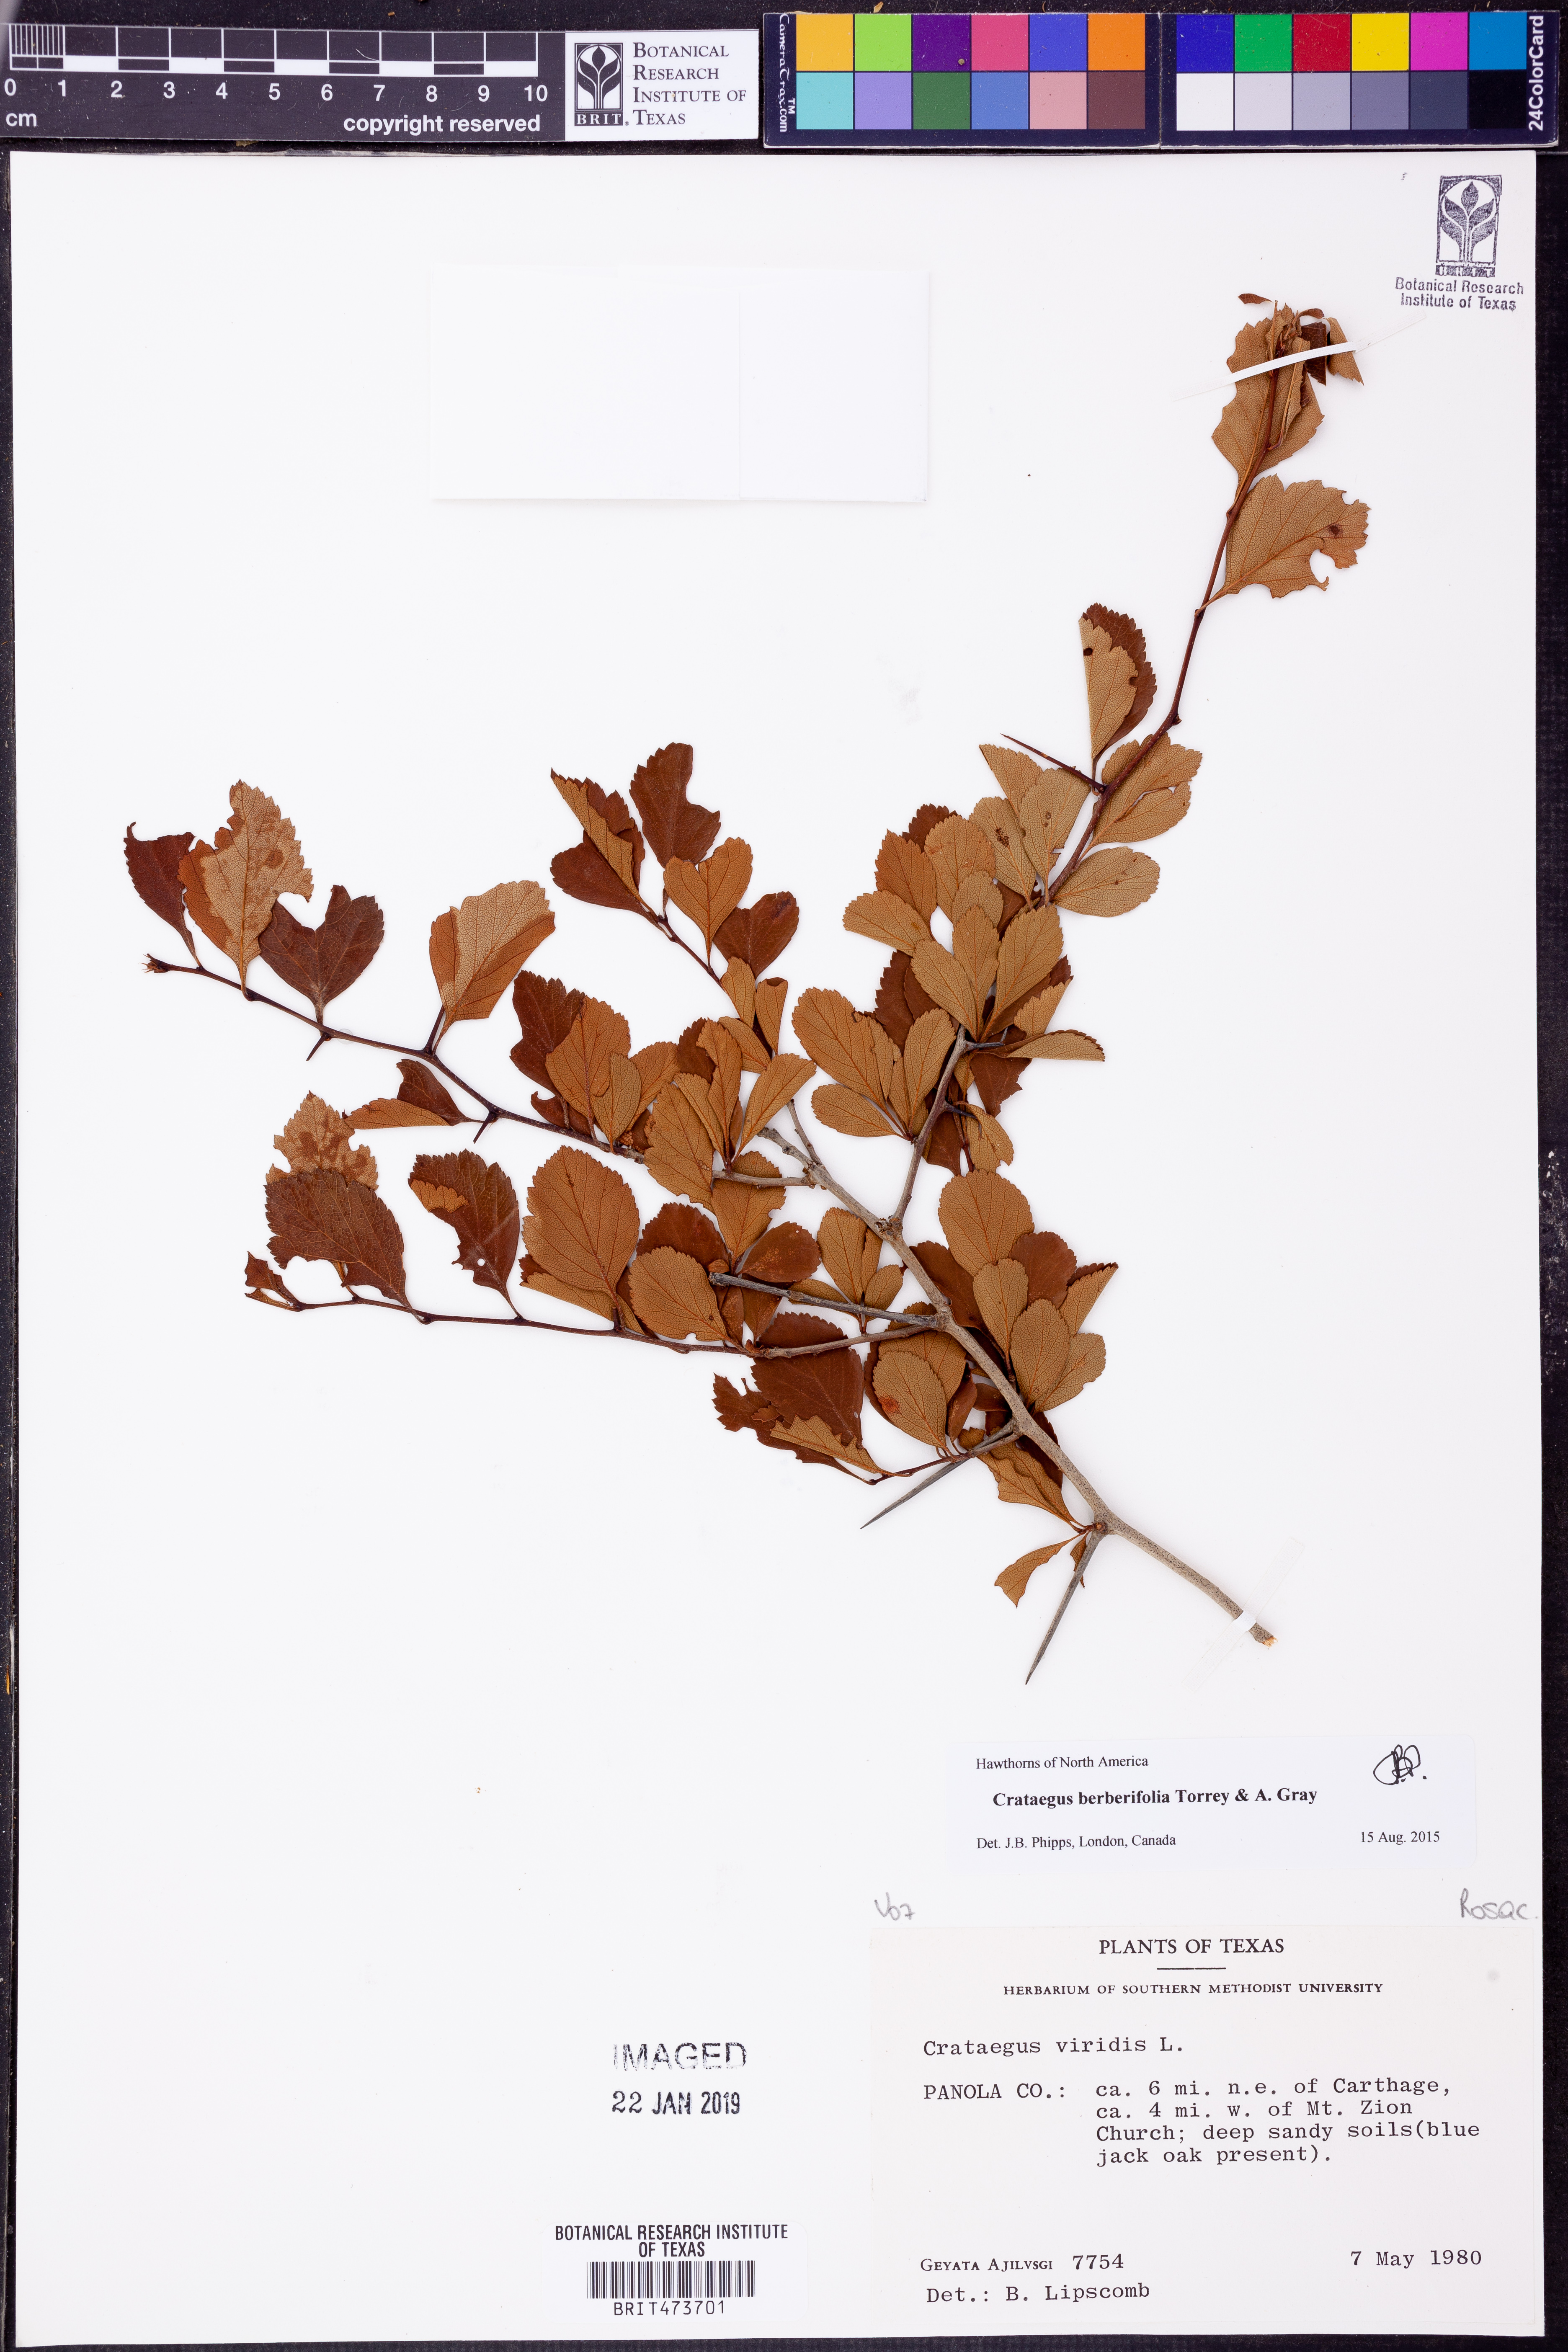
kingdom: Plantae
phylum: Tracheophyta
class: Magnoliopsida
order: Rosales
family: Rosaceae
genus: Crataegus
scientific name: Crataegus berberifolia
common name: Barberry hawthorn
